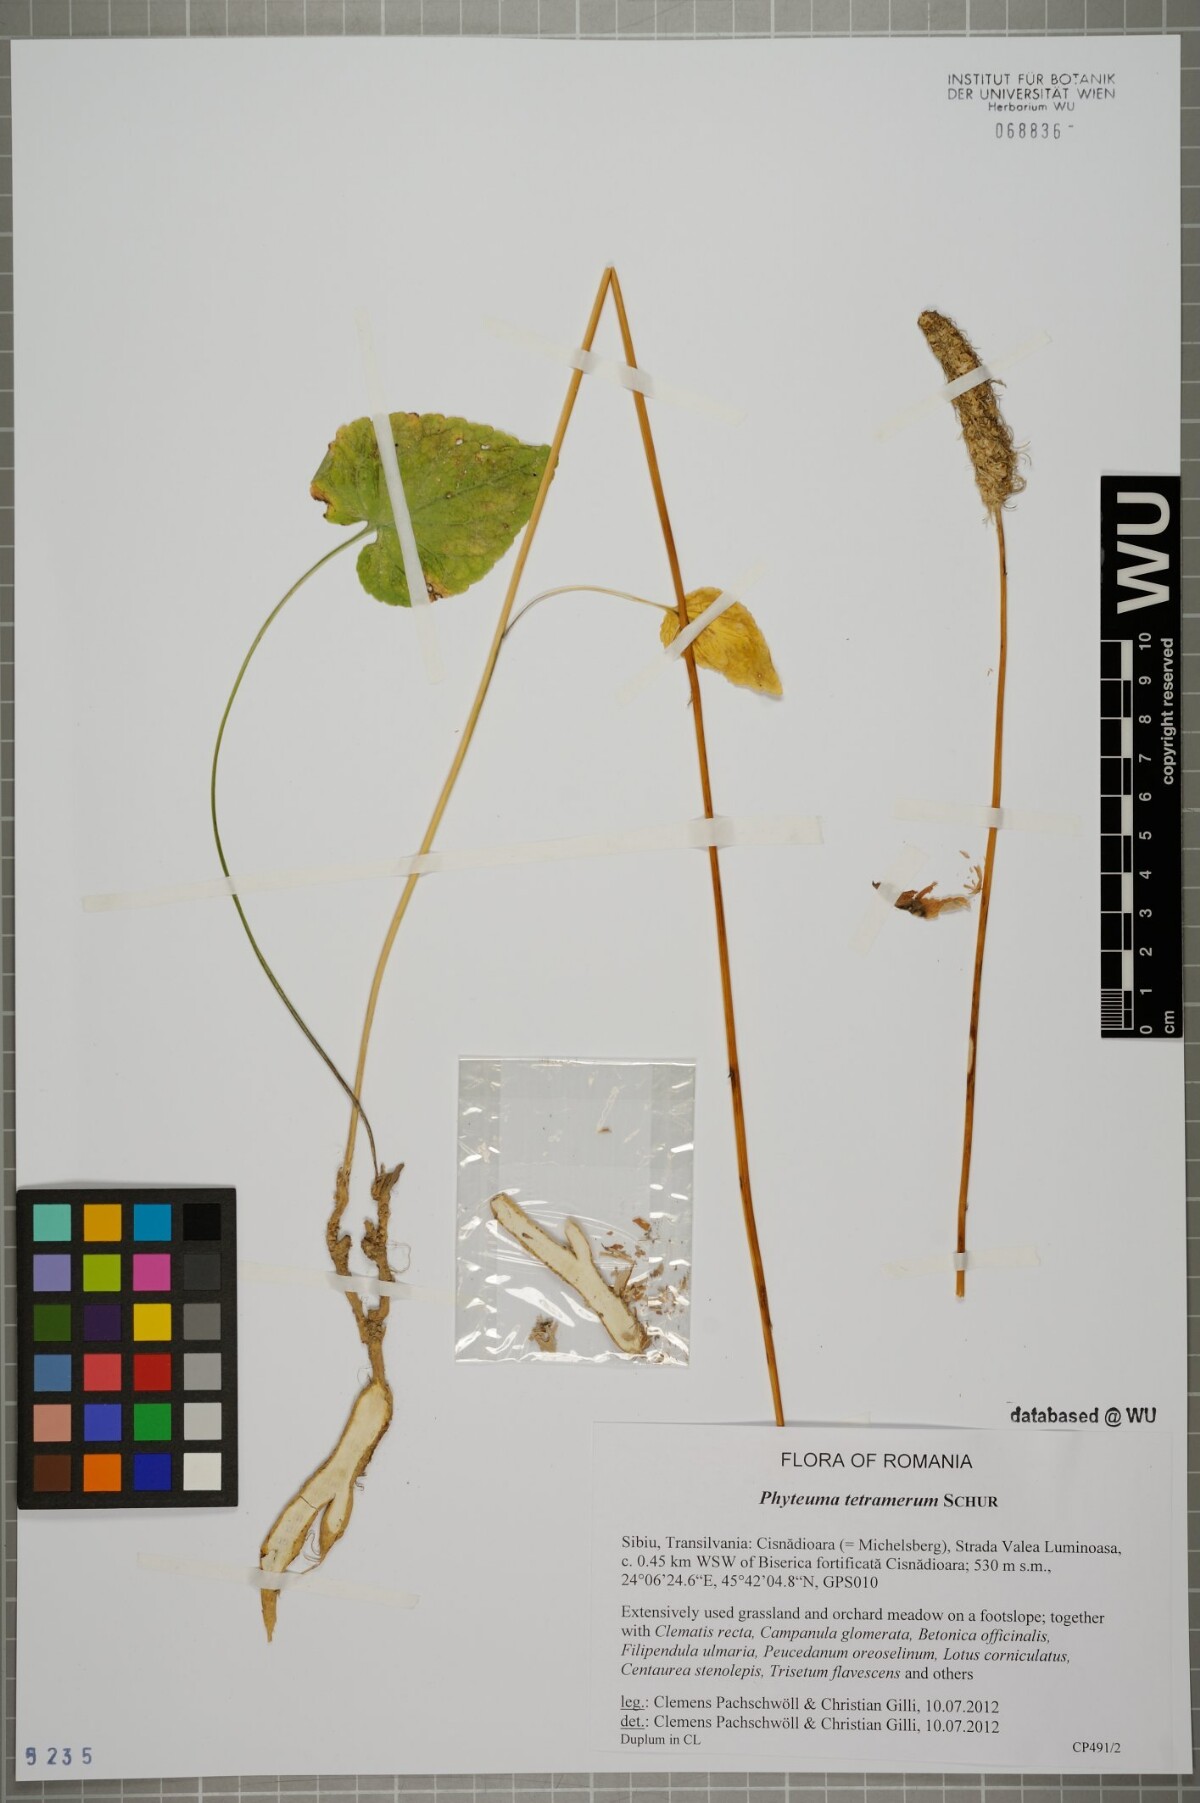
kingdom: Plantae
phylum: Tracheophyta
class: Magnoliopsida
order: Asterales
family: Campanulaceae
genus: Phyteuma
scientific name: Phyteuma tetramerum
